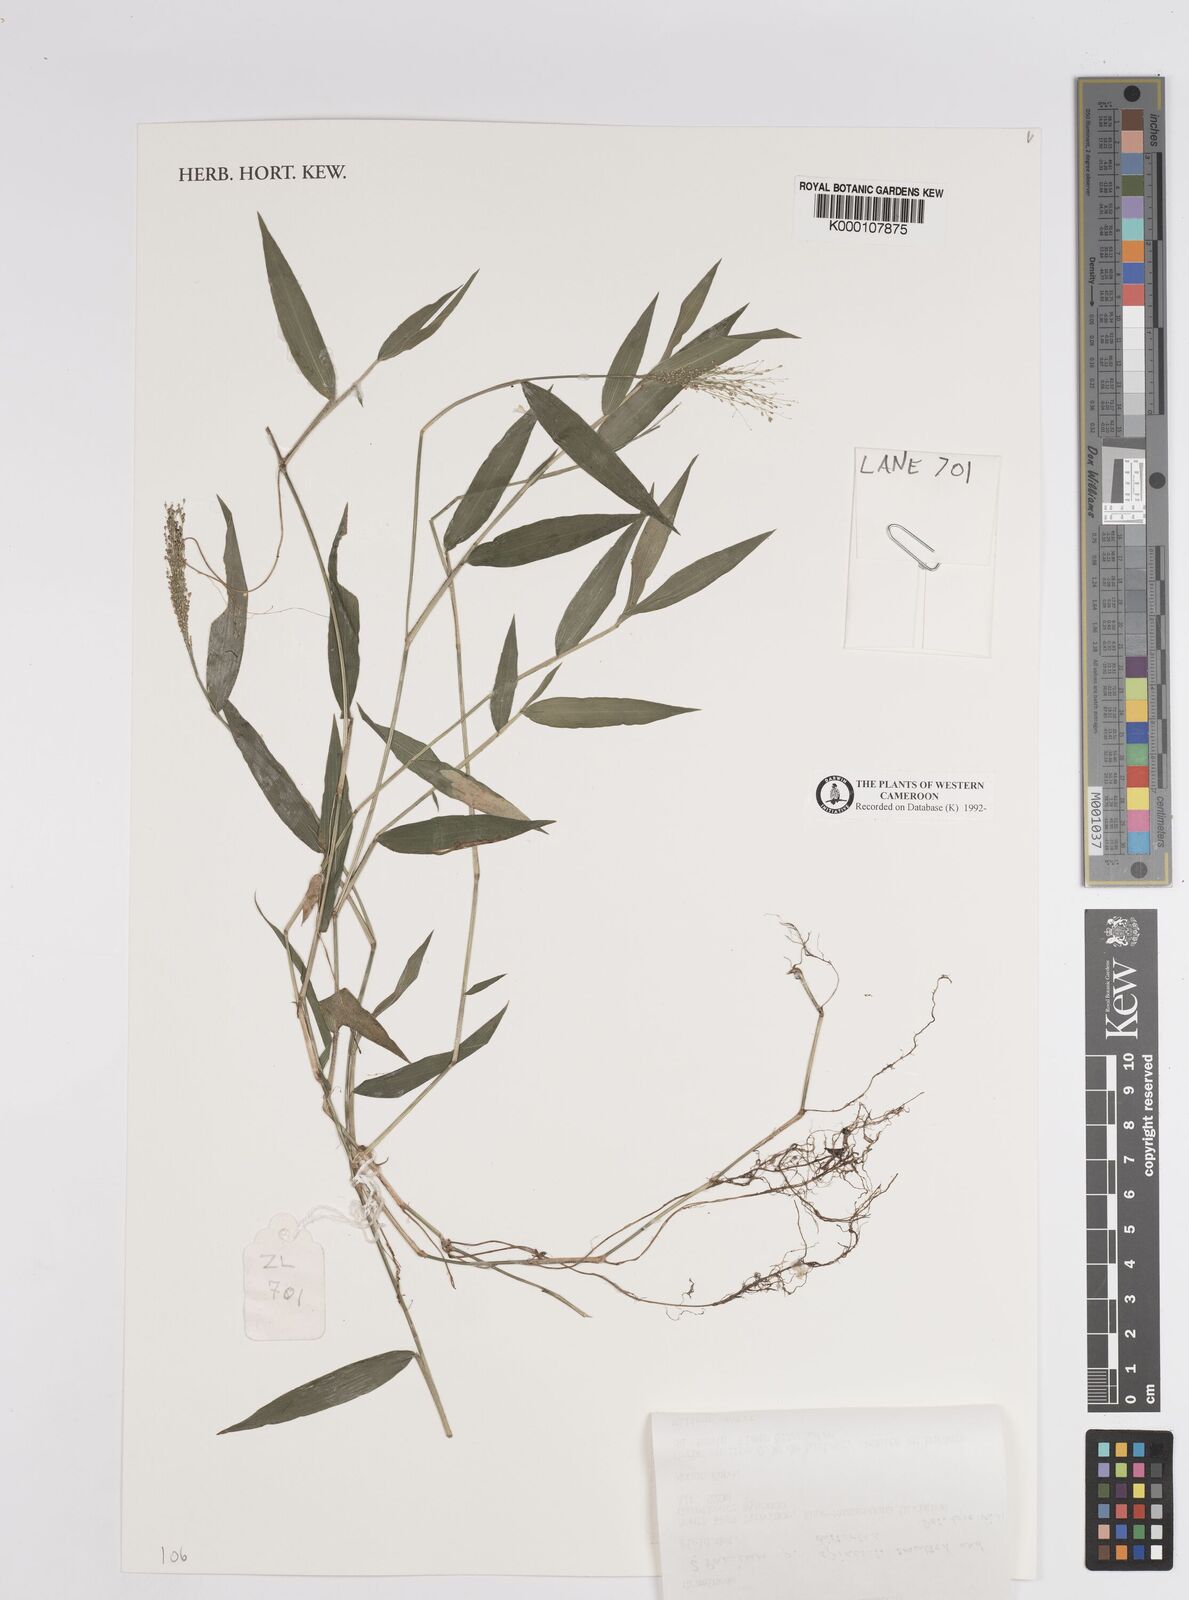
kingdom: Plantae
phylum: Tracheophyta
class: Liliopsida
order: Poales
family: Poaceae
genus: Panicum
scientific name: Panicum
